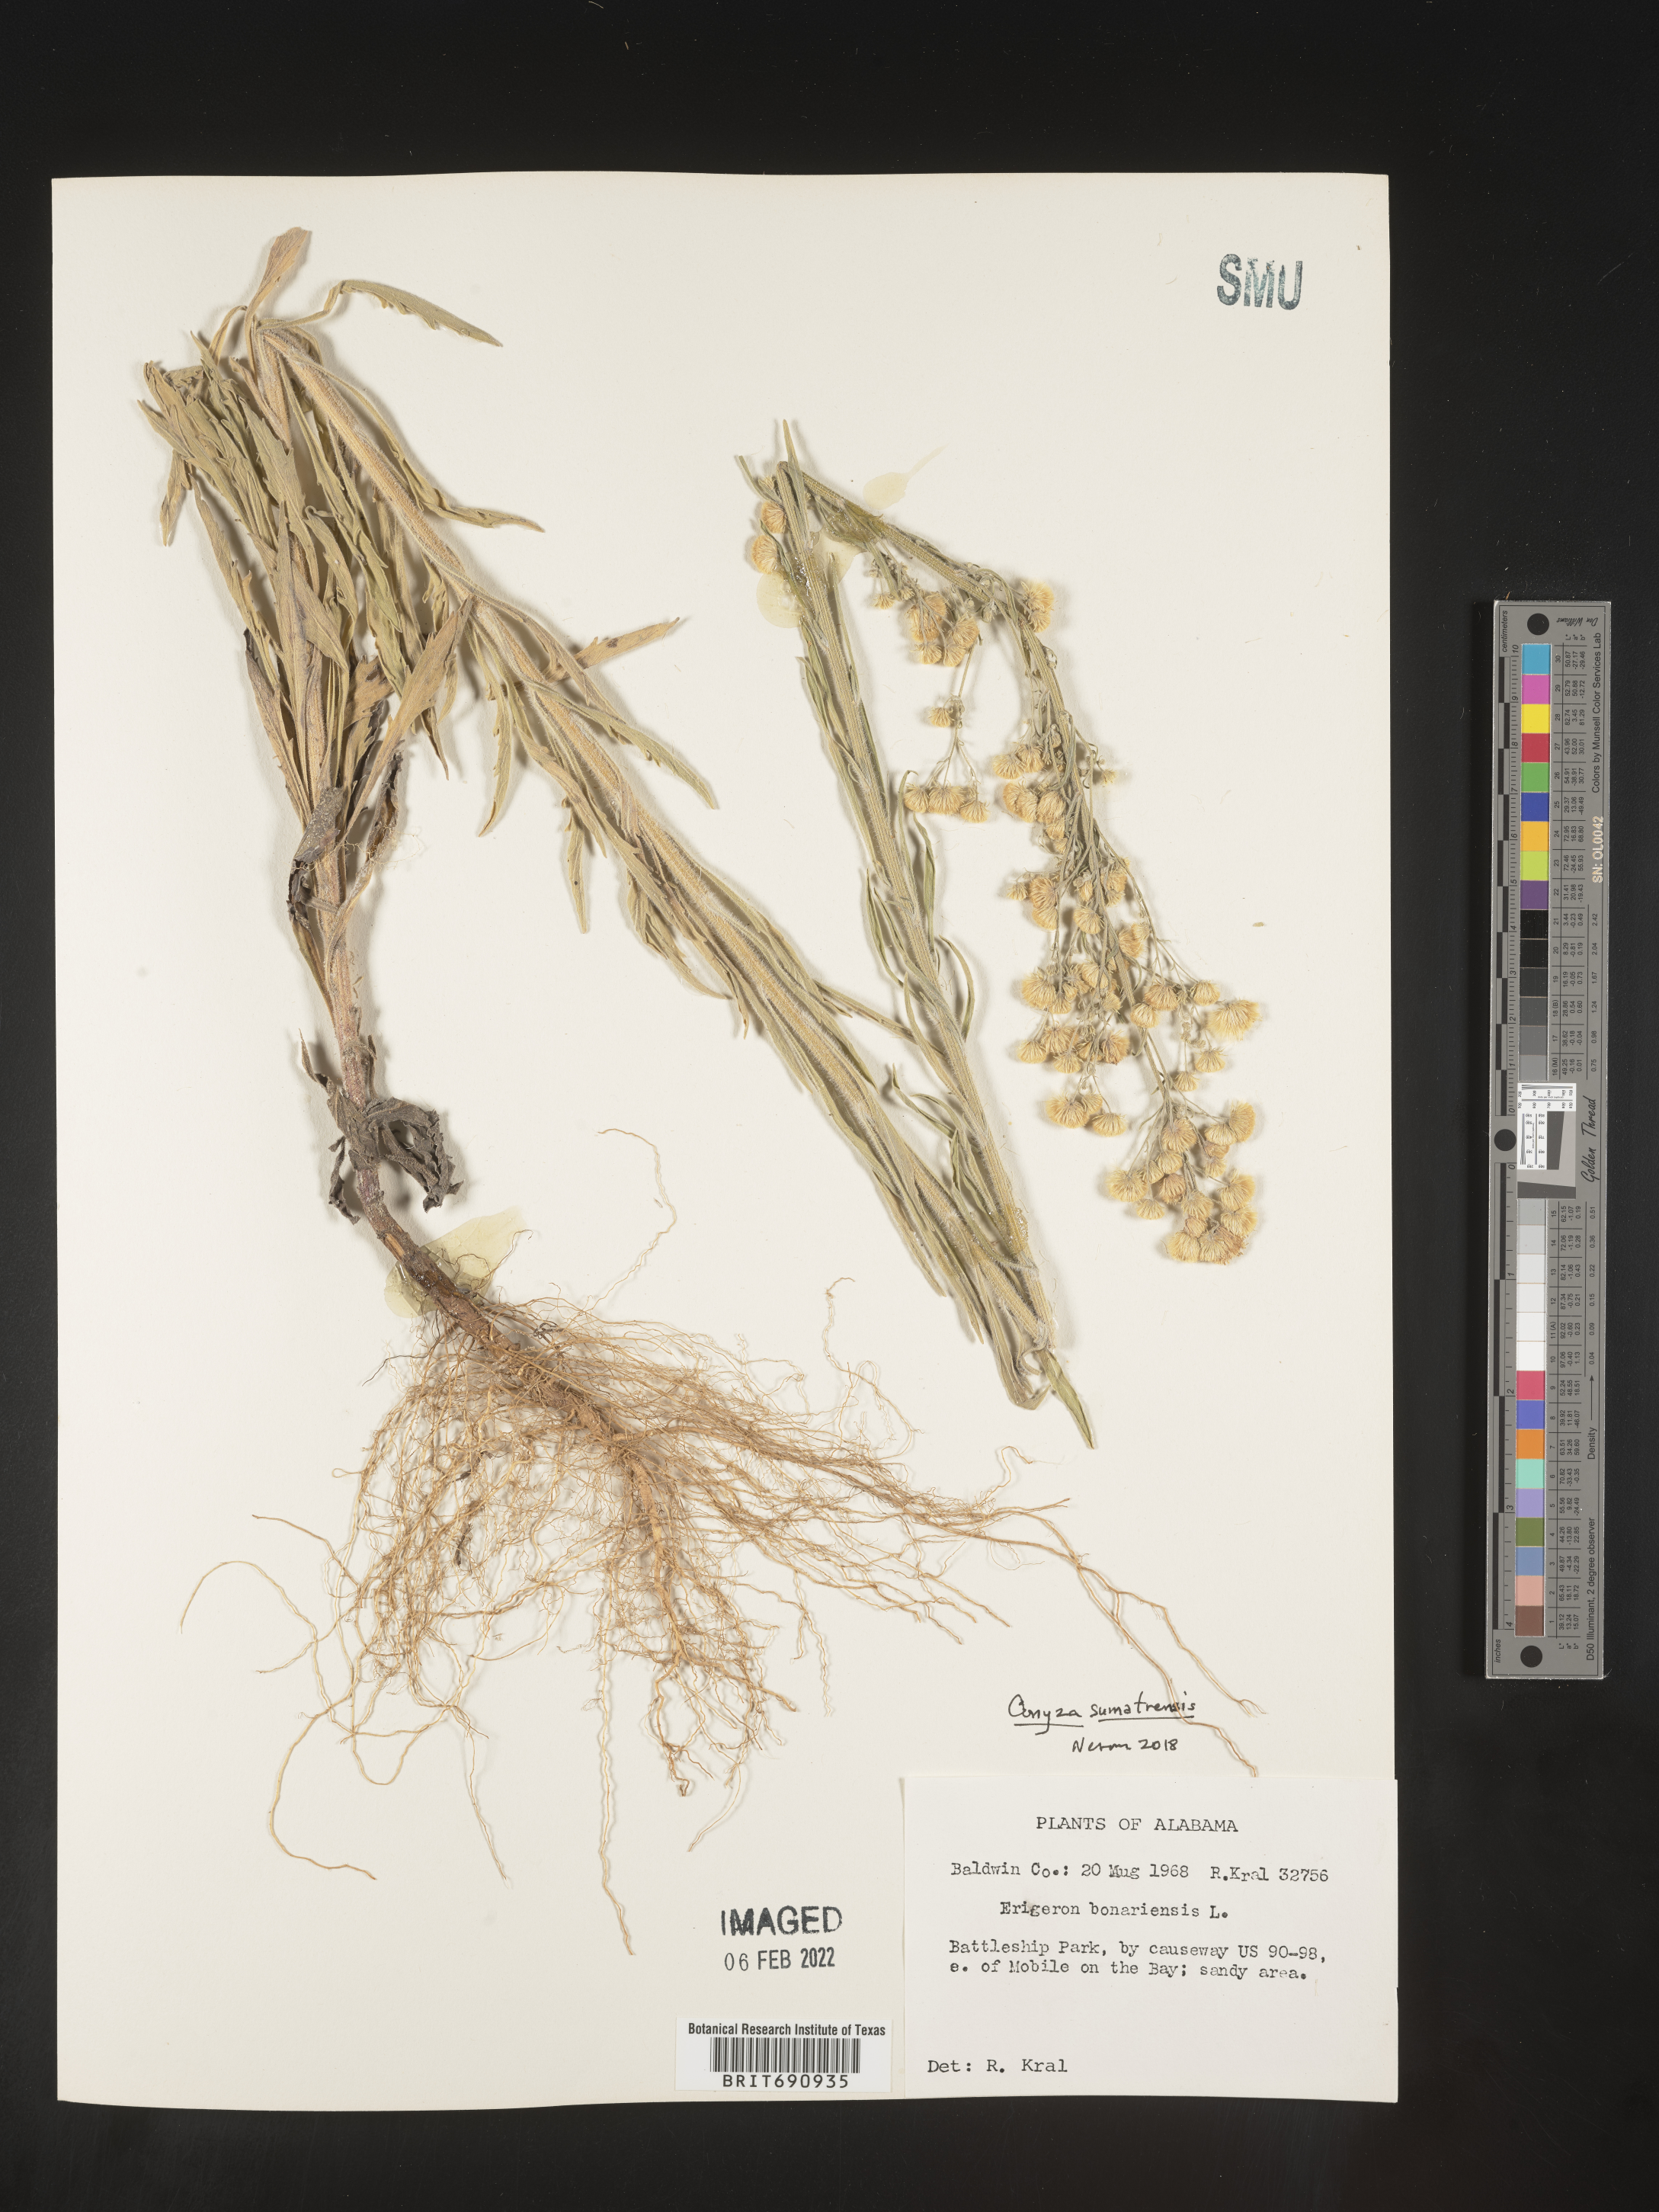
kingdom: Plantae
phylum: Tracheophyta
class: Magnoliopsida
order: Asterales
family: Asteraceae
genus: Erigeron
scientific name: Erigeron sumatrensis
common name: Daisy
